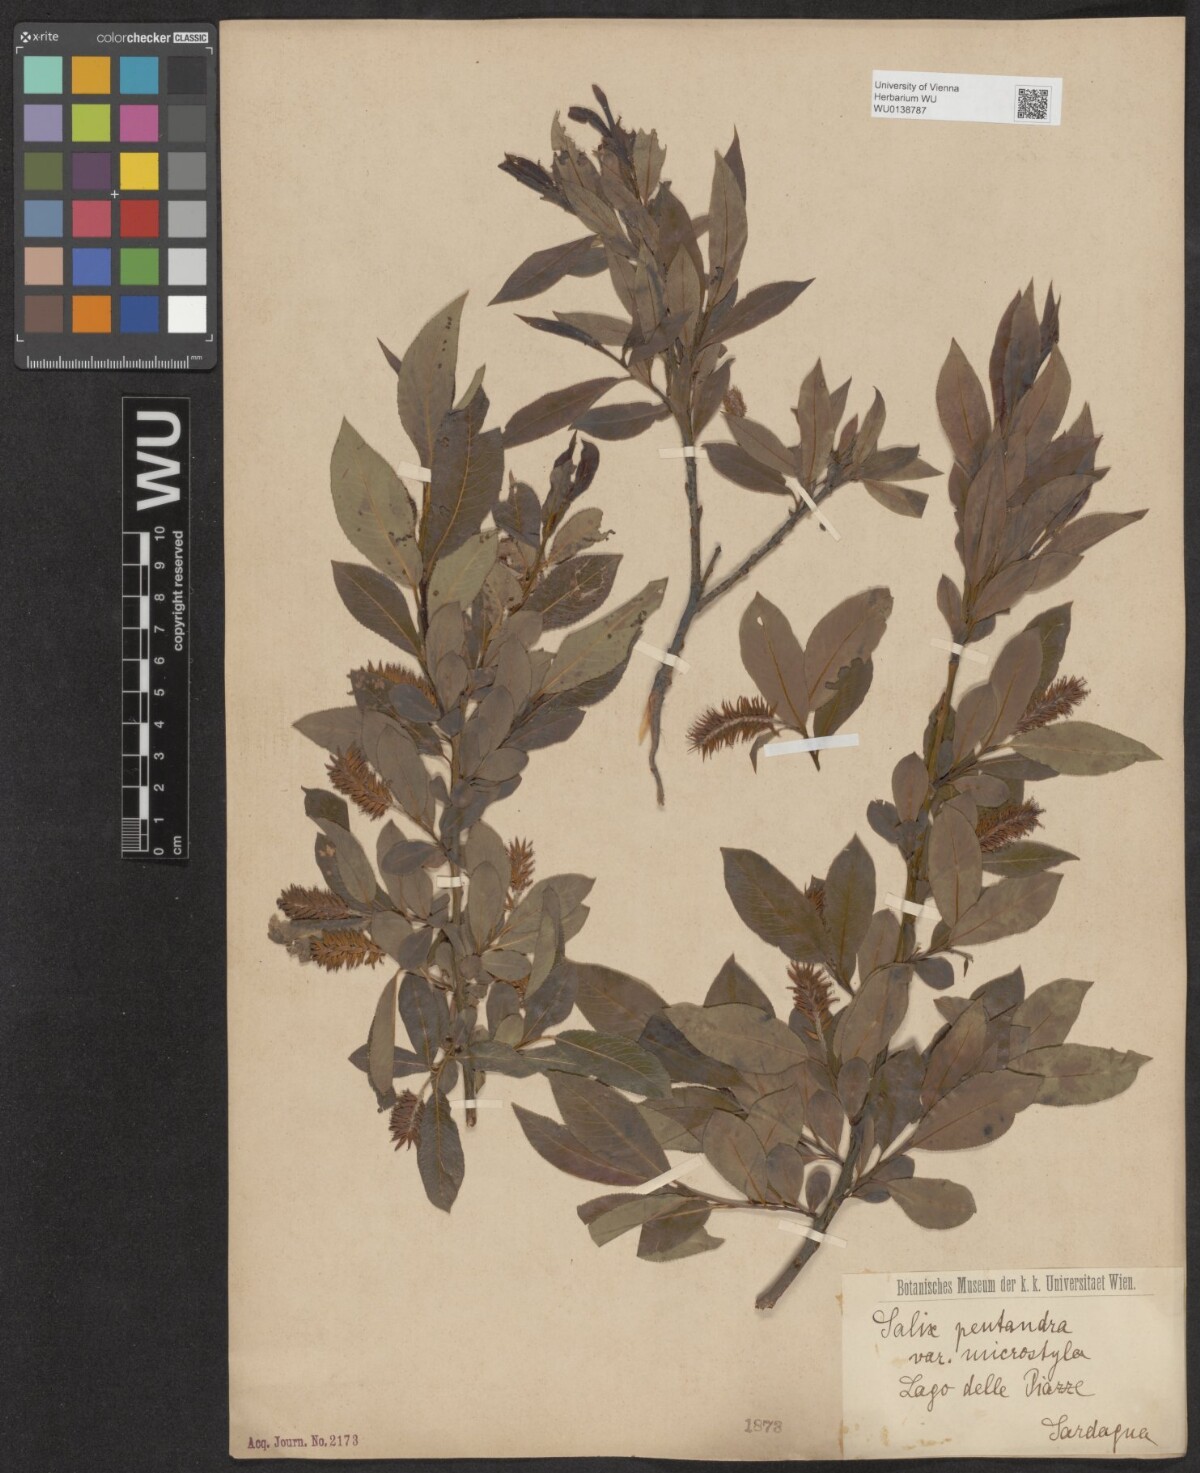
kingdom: Plantae
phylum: Tracheophyta
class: Magnoliopsida
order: Malpighiales
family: Salicaceae
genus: Salix
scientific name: Salix pentandra
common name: Bay willow
